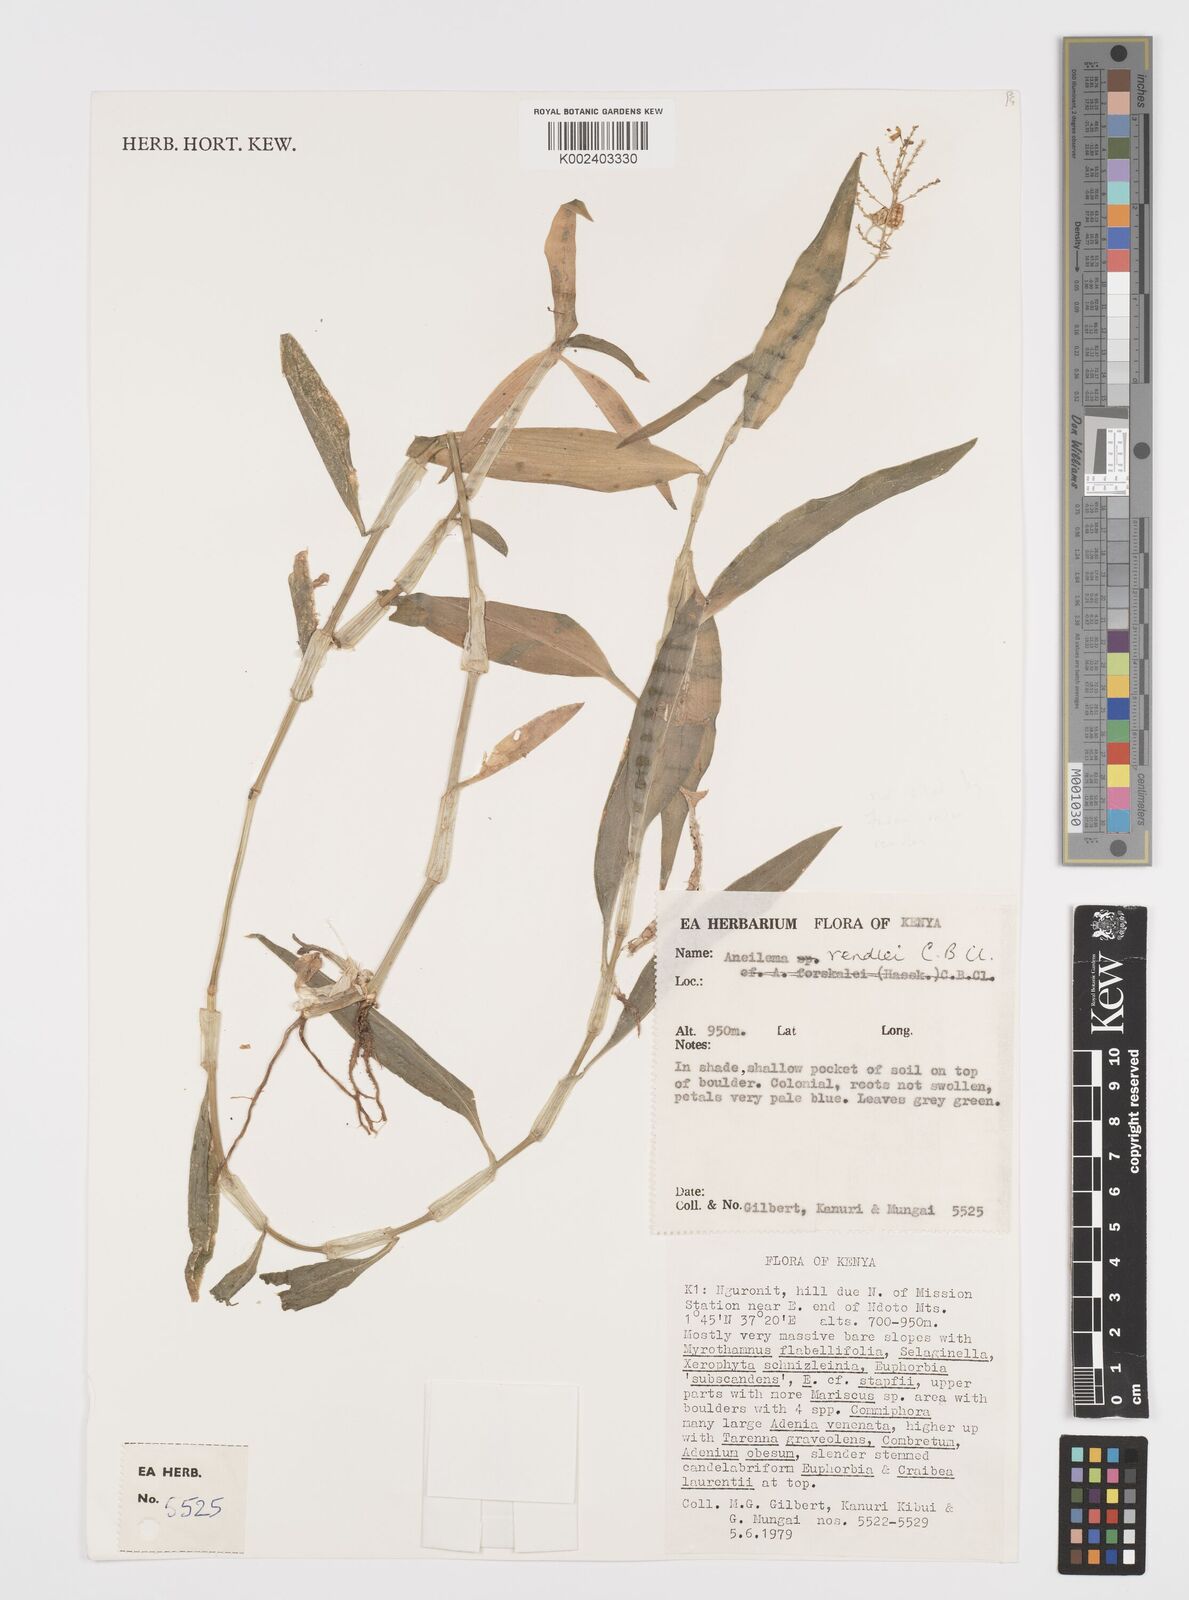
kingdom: Plantae
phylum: Tracheophyta
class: Liliopsida
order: Commelinales
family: Commelinaceae
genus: Aneilema
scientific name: Aneilema rendlei
